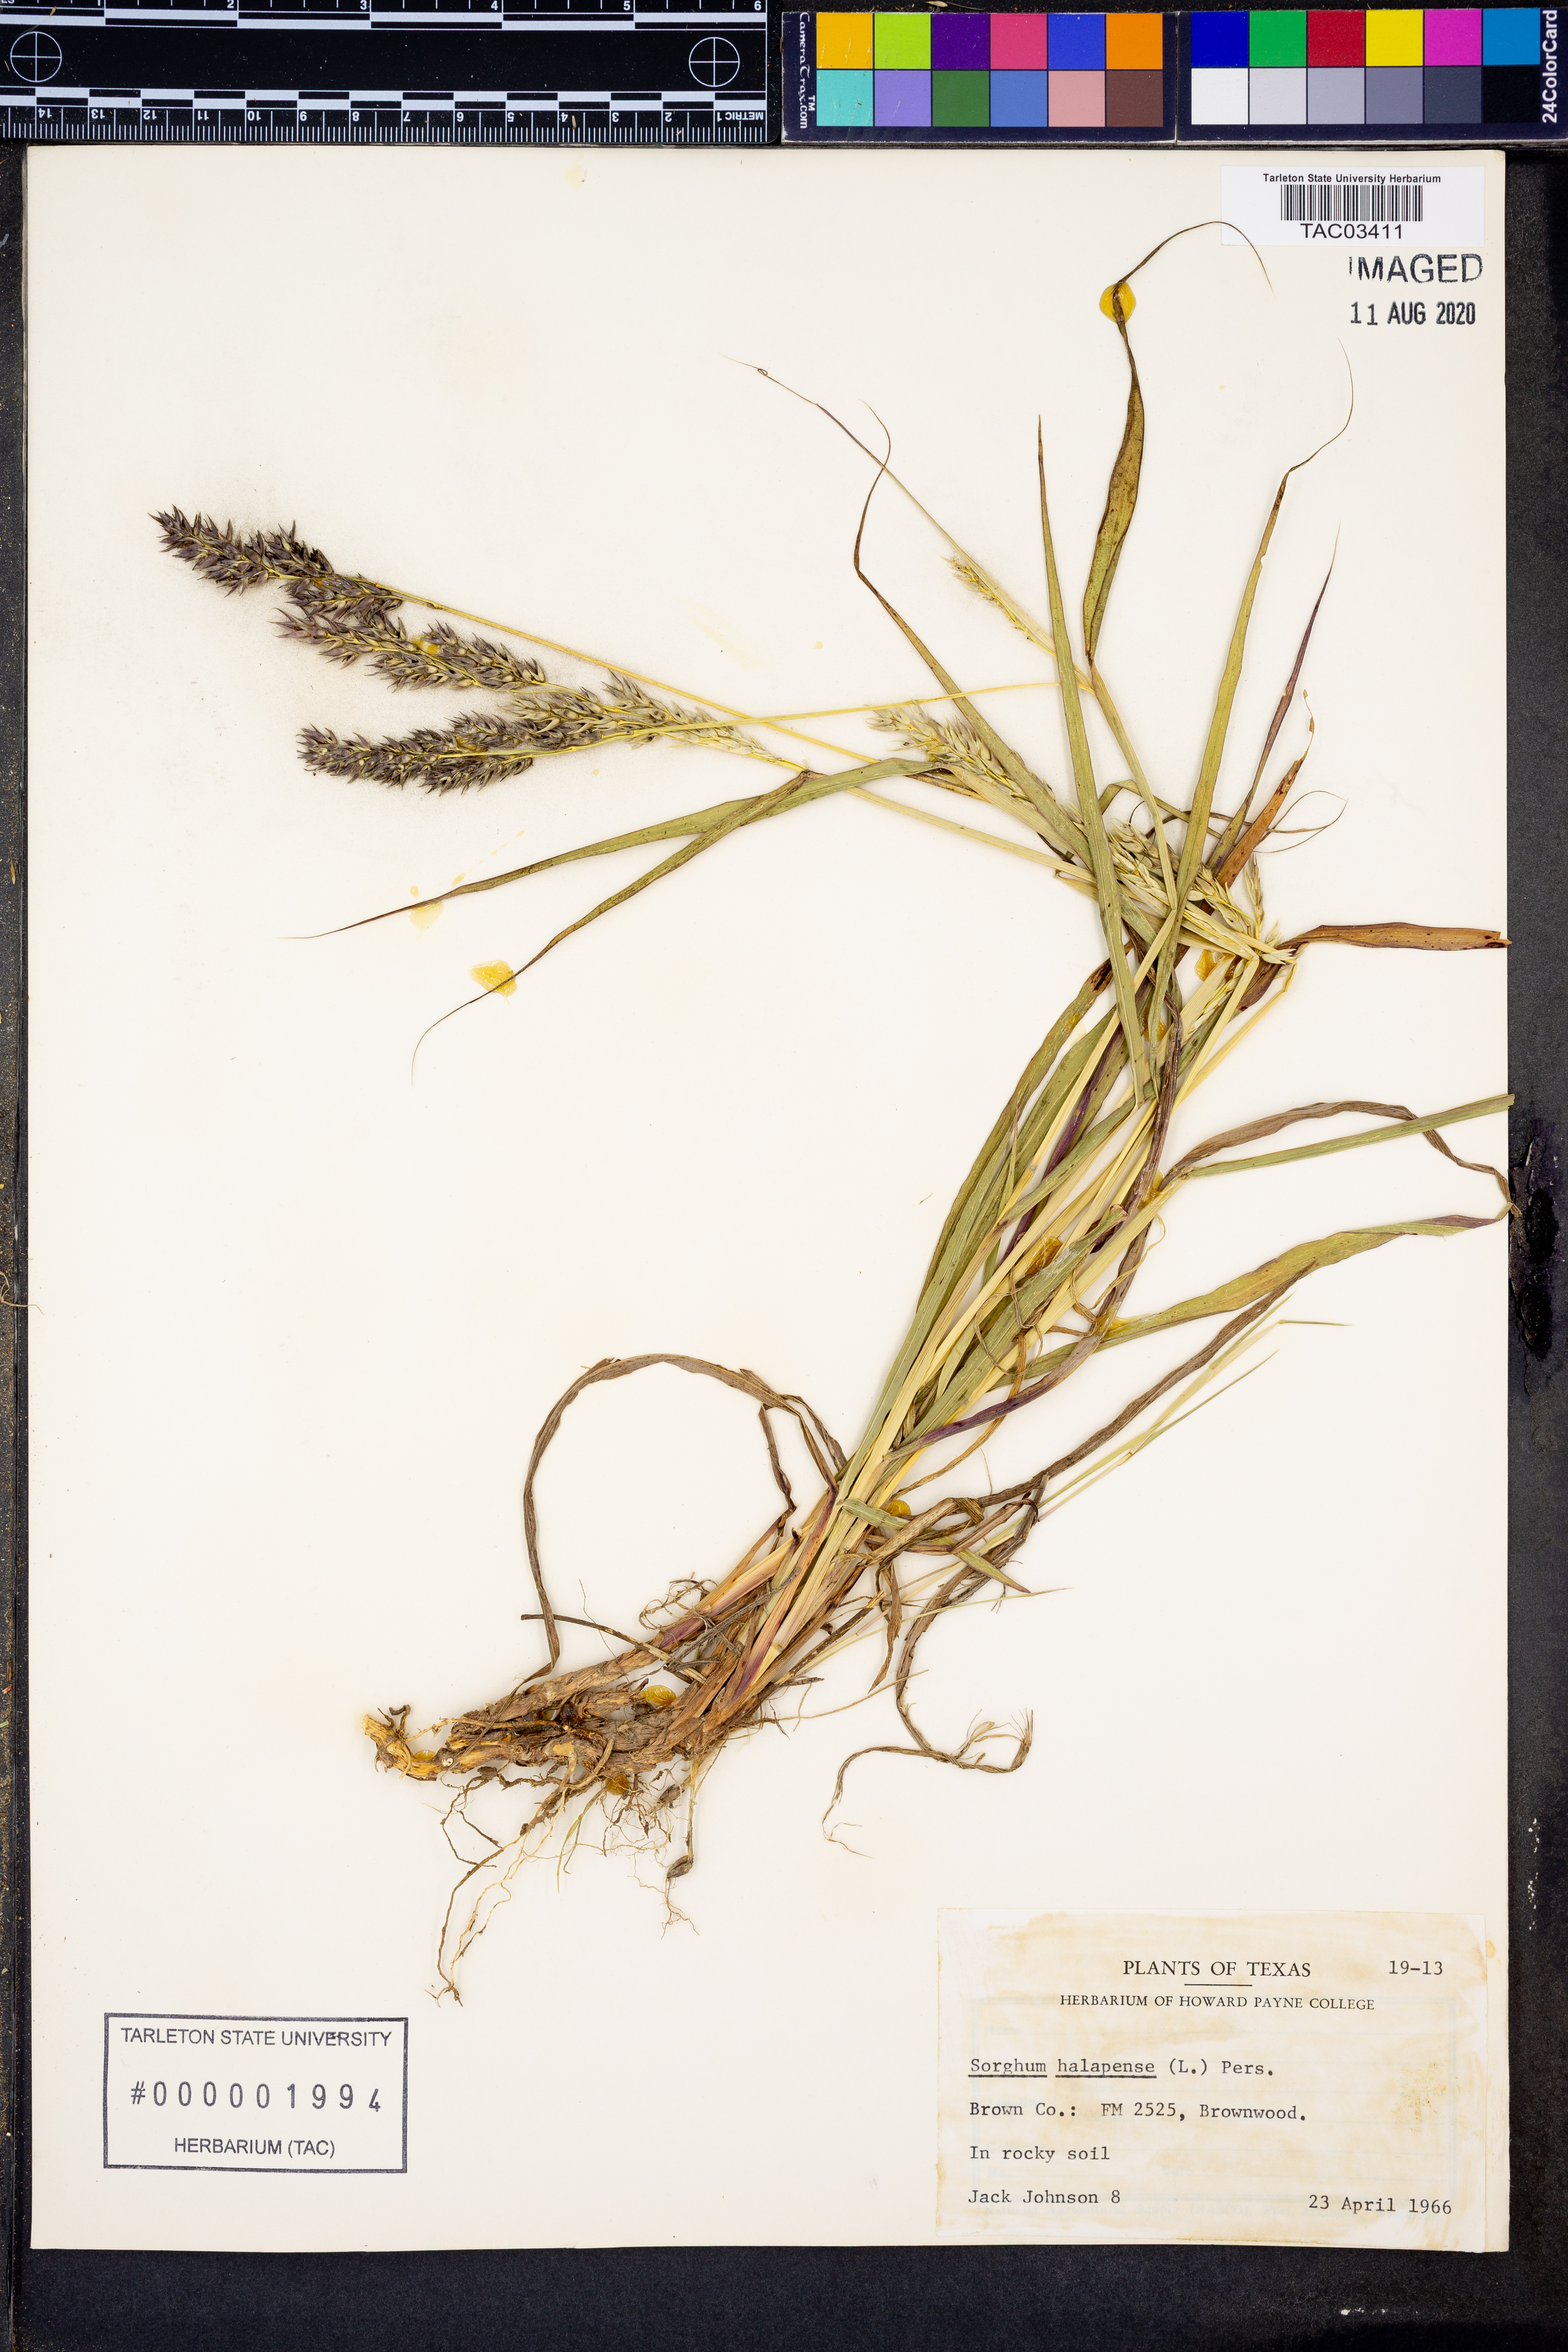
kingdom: Plantae
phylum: Tracheophyta
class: Liliopsida
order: Poales
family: Poaceae
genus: Sorghum
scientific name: Sorghum halepense
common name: Johnson-grass
